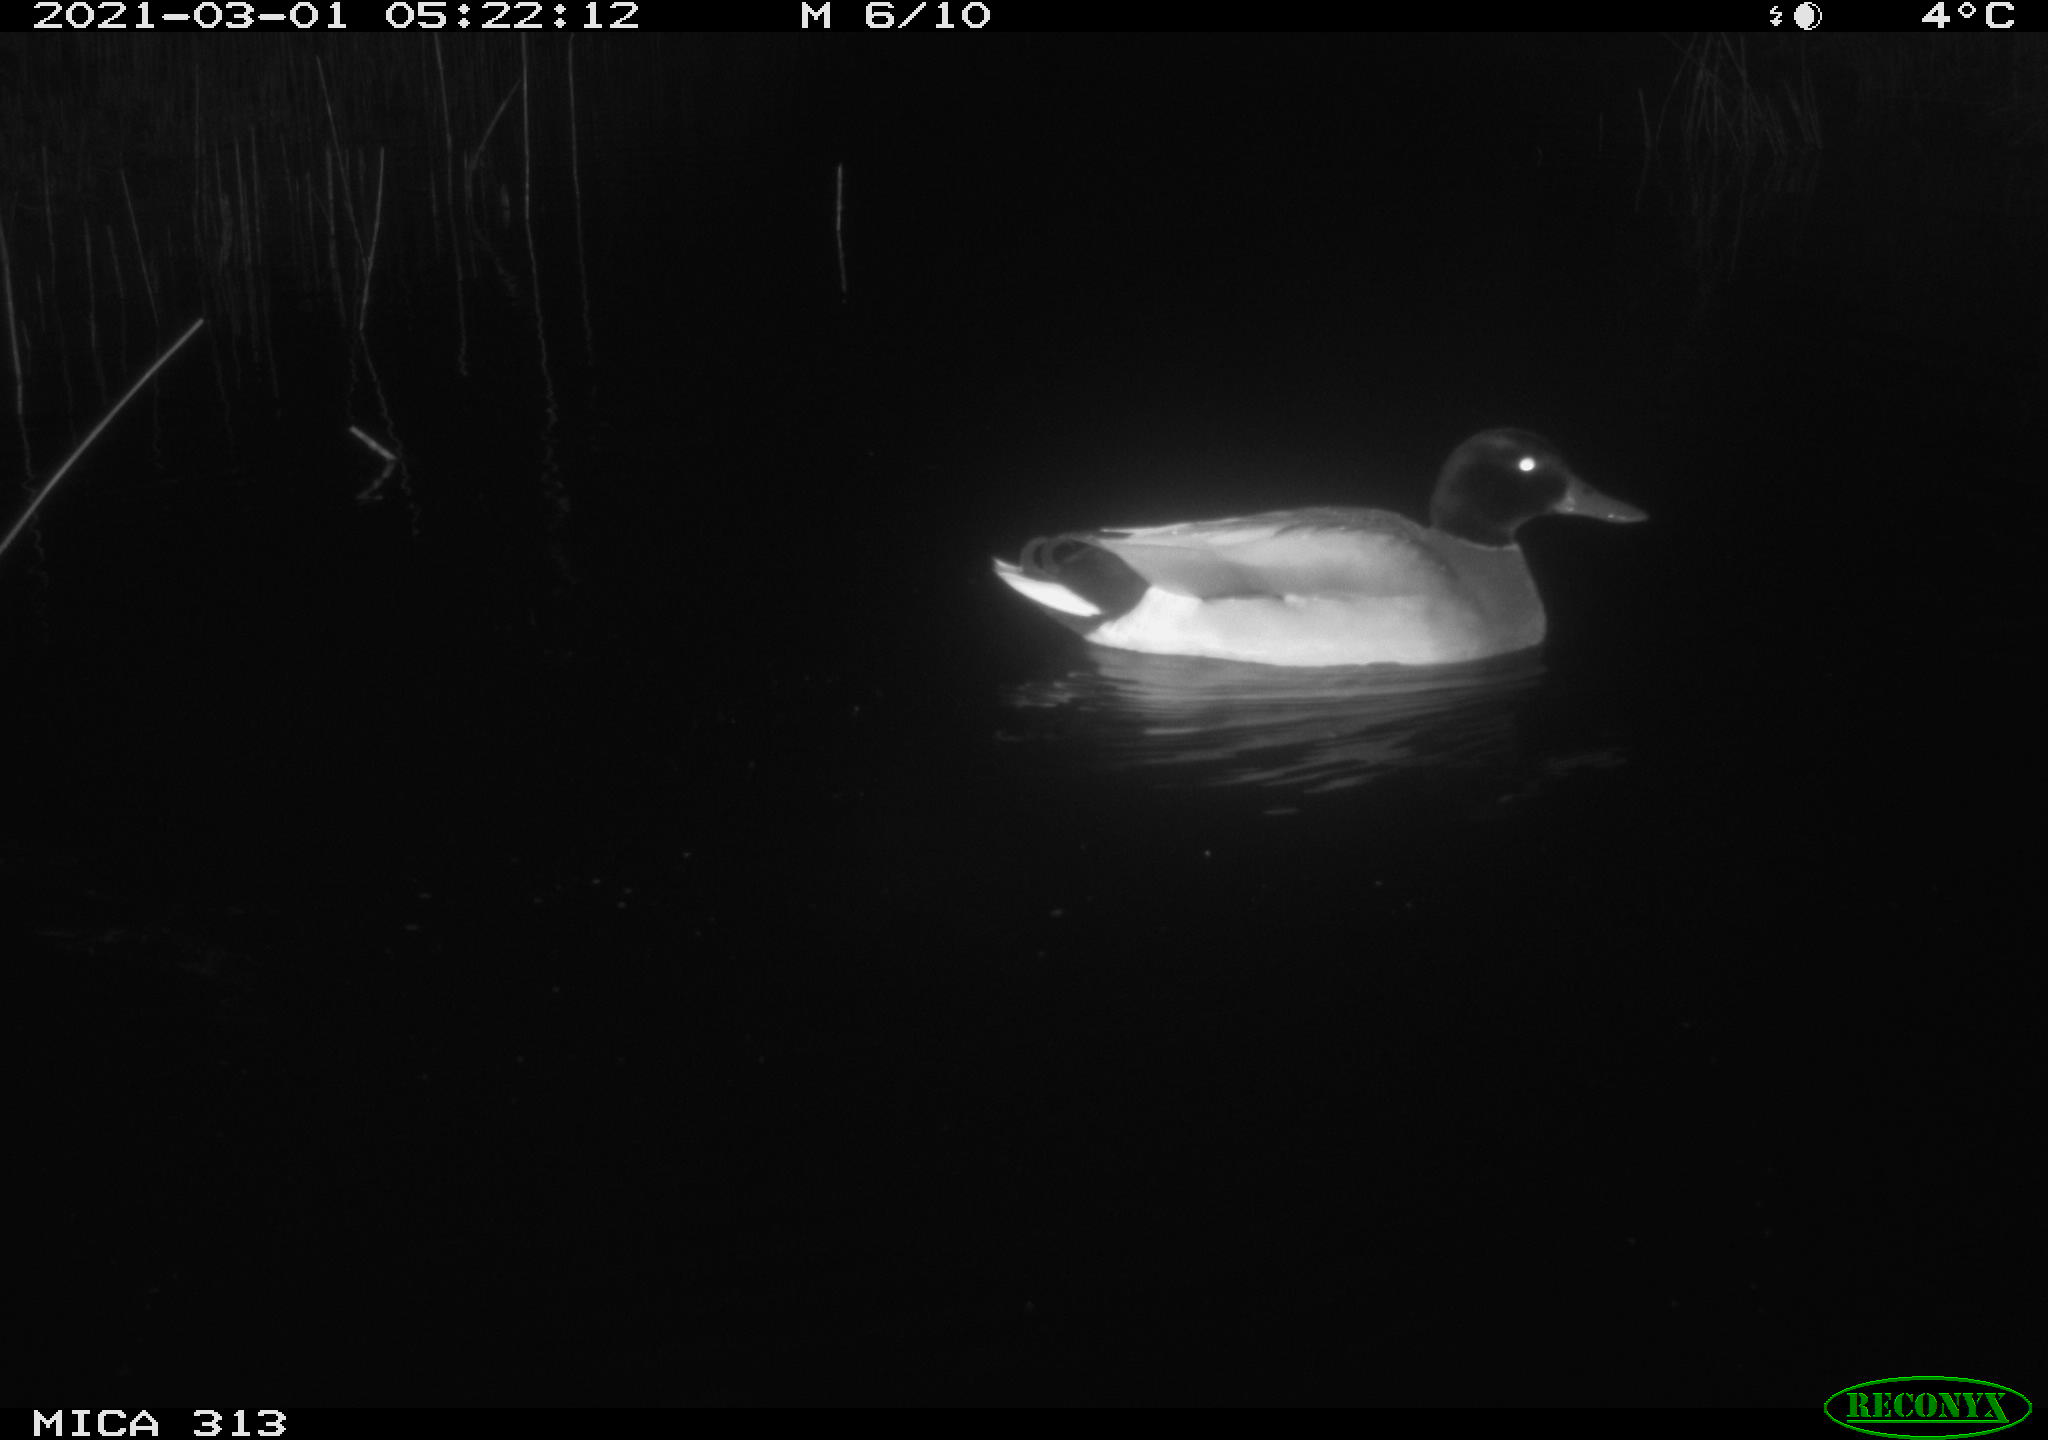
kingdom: Animalia
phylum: Chordata
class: Aves
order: Anseriformes
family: Anatidae
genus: Anas
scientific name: Anas
